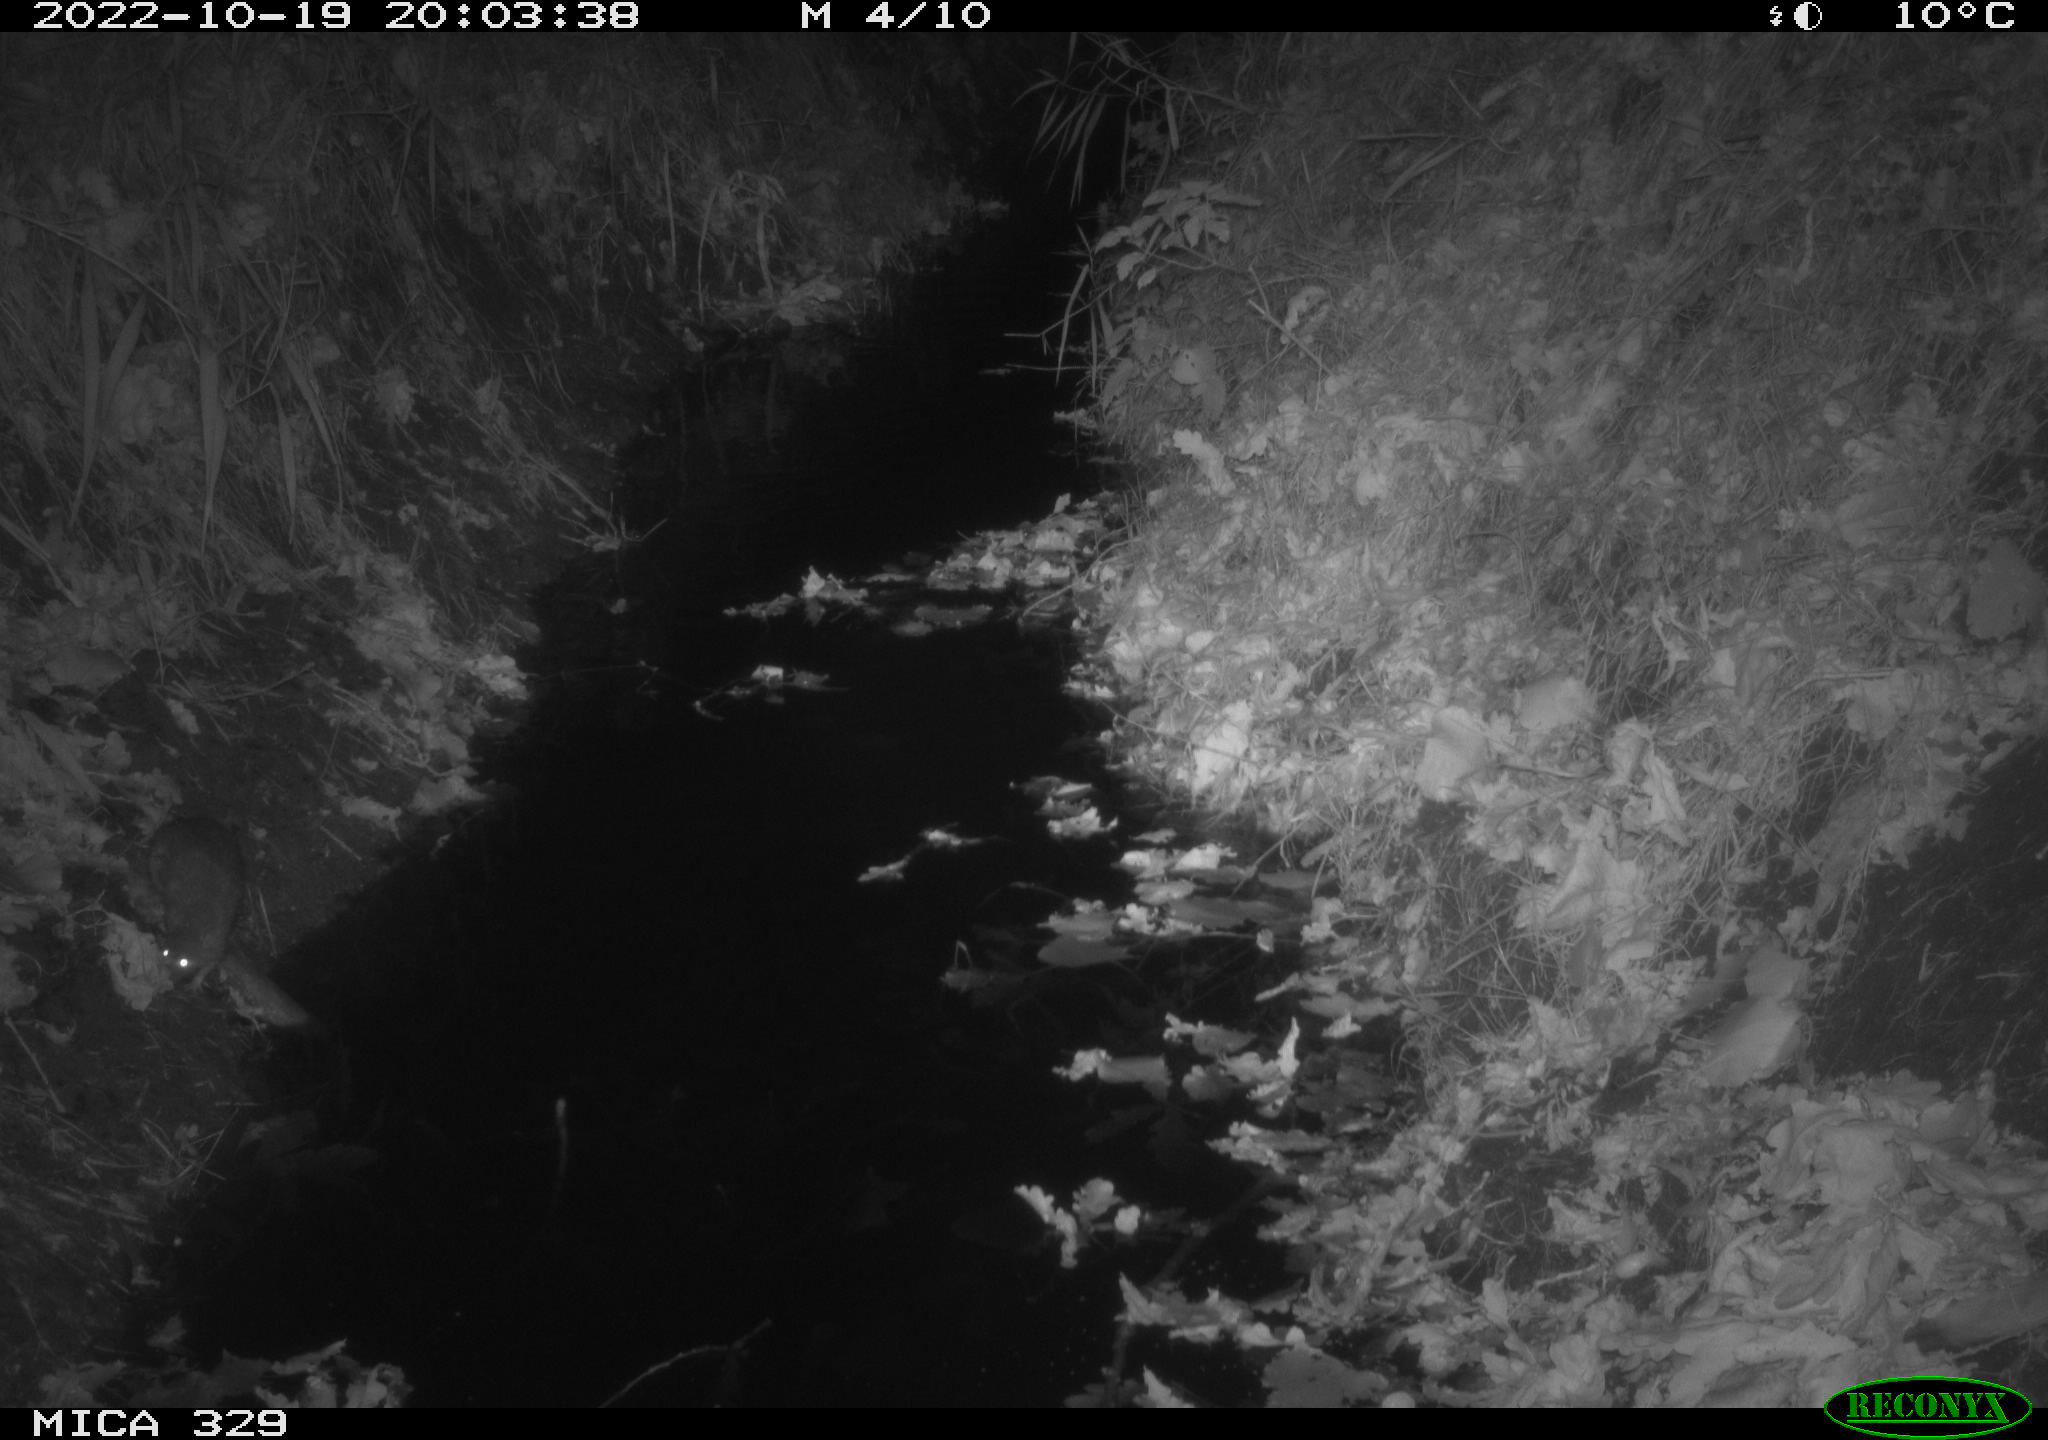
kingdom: Animalia
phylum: Chordata
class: Mammalia
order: Rodentia
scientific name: Rodentia
